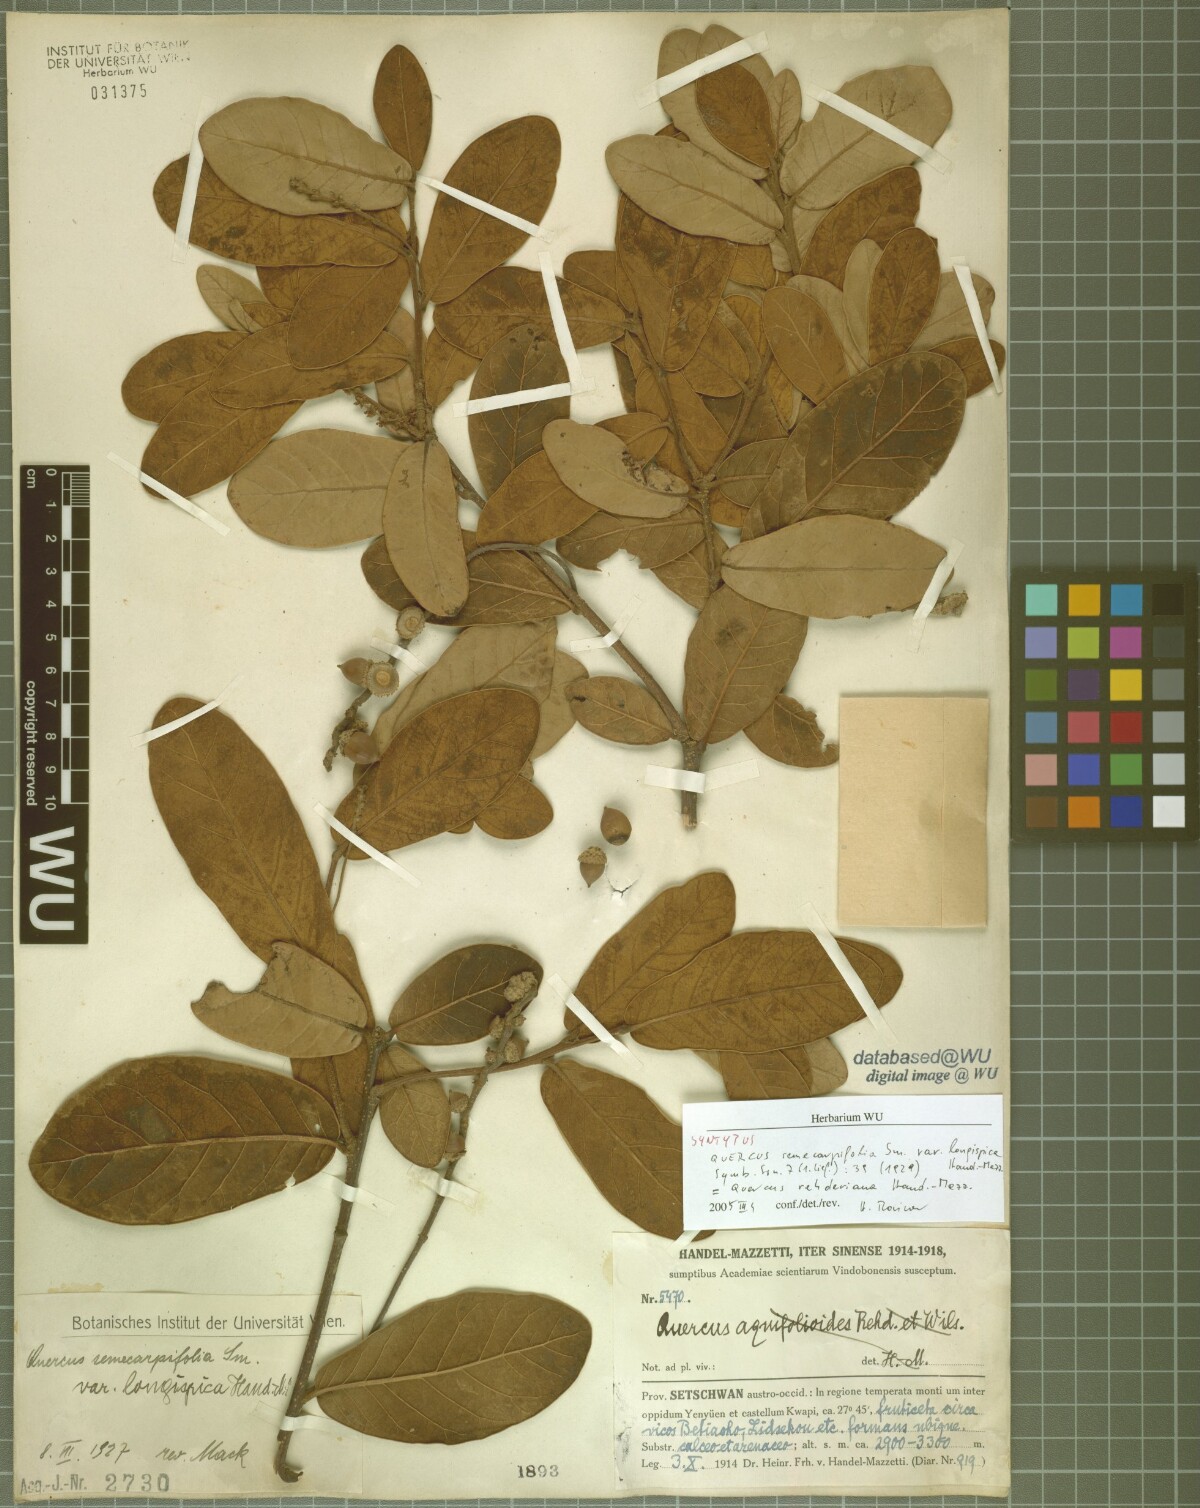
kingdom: Plantae
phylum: Tracheophyta
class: Magnoliopsida
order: Fagales
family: Fagaceae
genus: Quercus
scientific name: Quercus longispica
